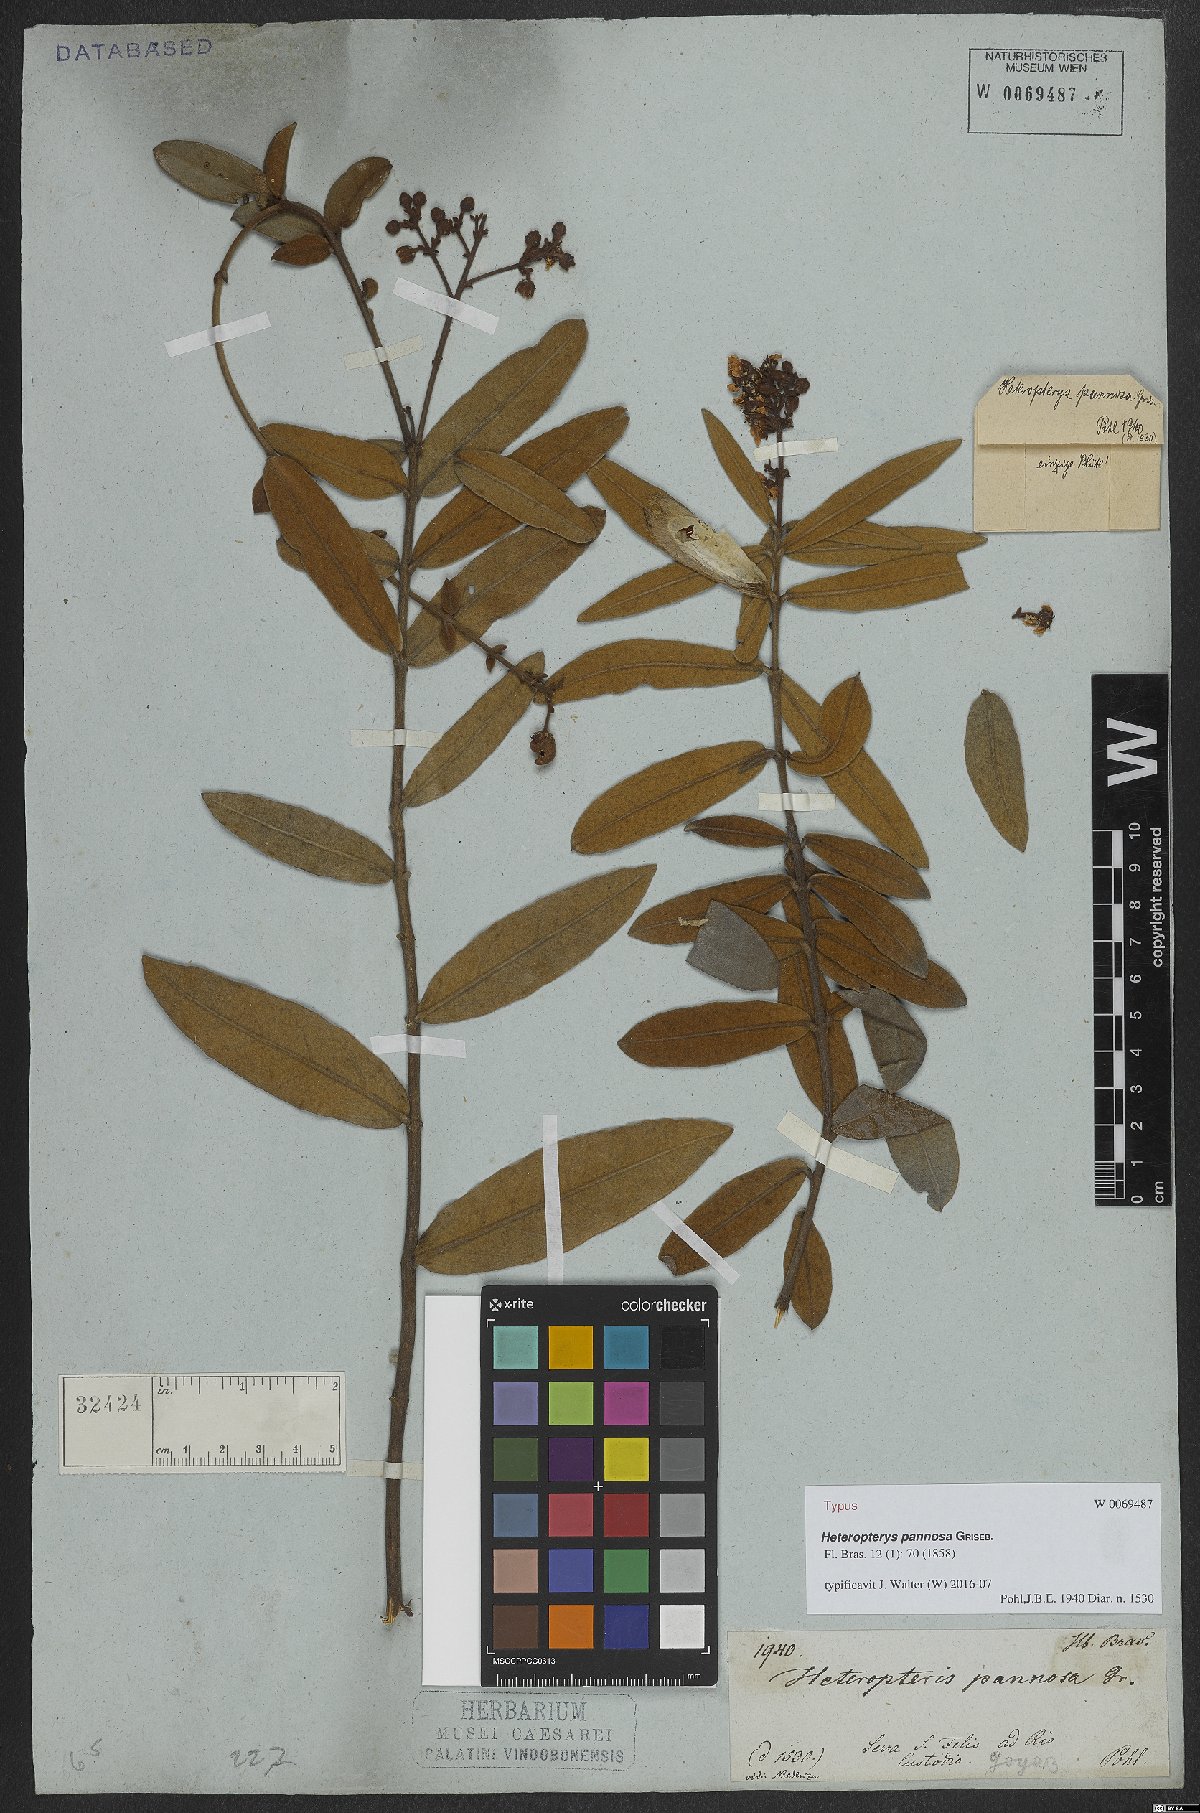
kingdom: Plantae
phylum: Tracheophyta
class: Magnoliopsida
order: Malpighiales
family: Malpighiaceae
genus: Heteropterys
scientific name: Heteropterys pannosa
